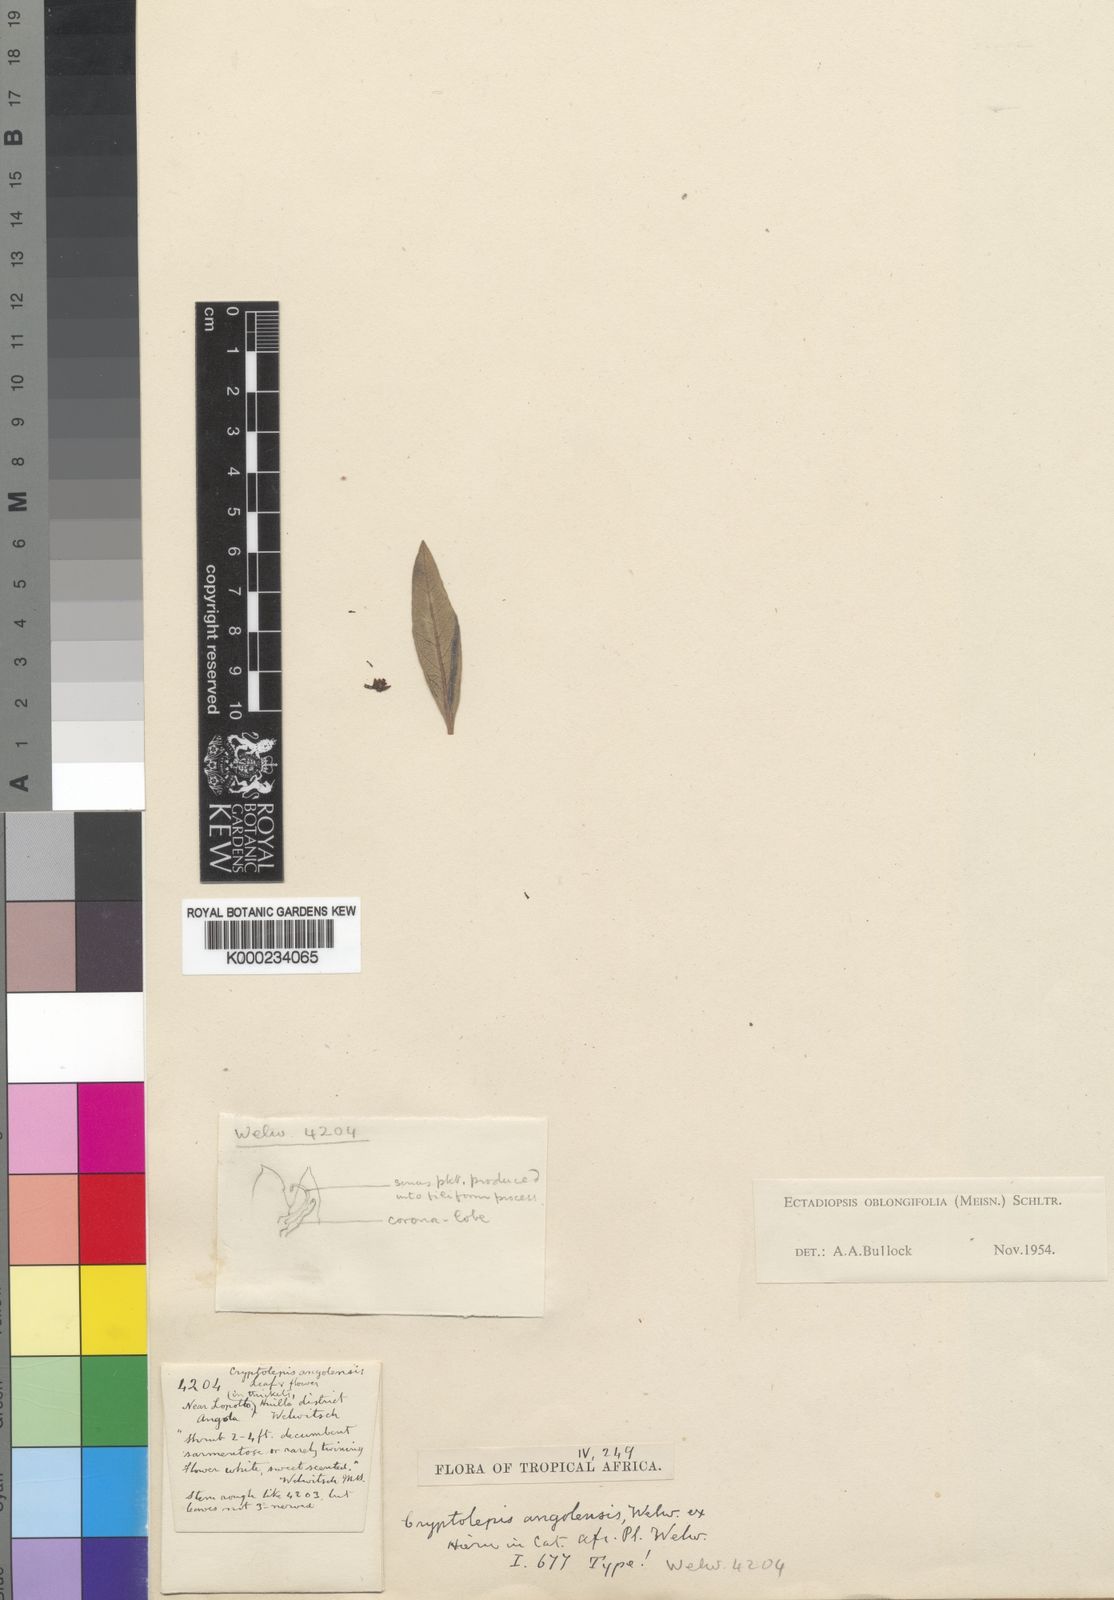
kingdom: Plantae
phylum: Tracheophyta
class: Magnoliopsida
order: Gentianales
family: Apocynaceae
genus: Cryptolepis
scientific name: Cryptolepis oblongifolia
